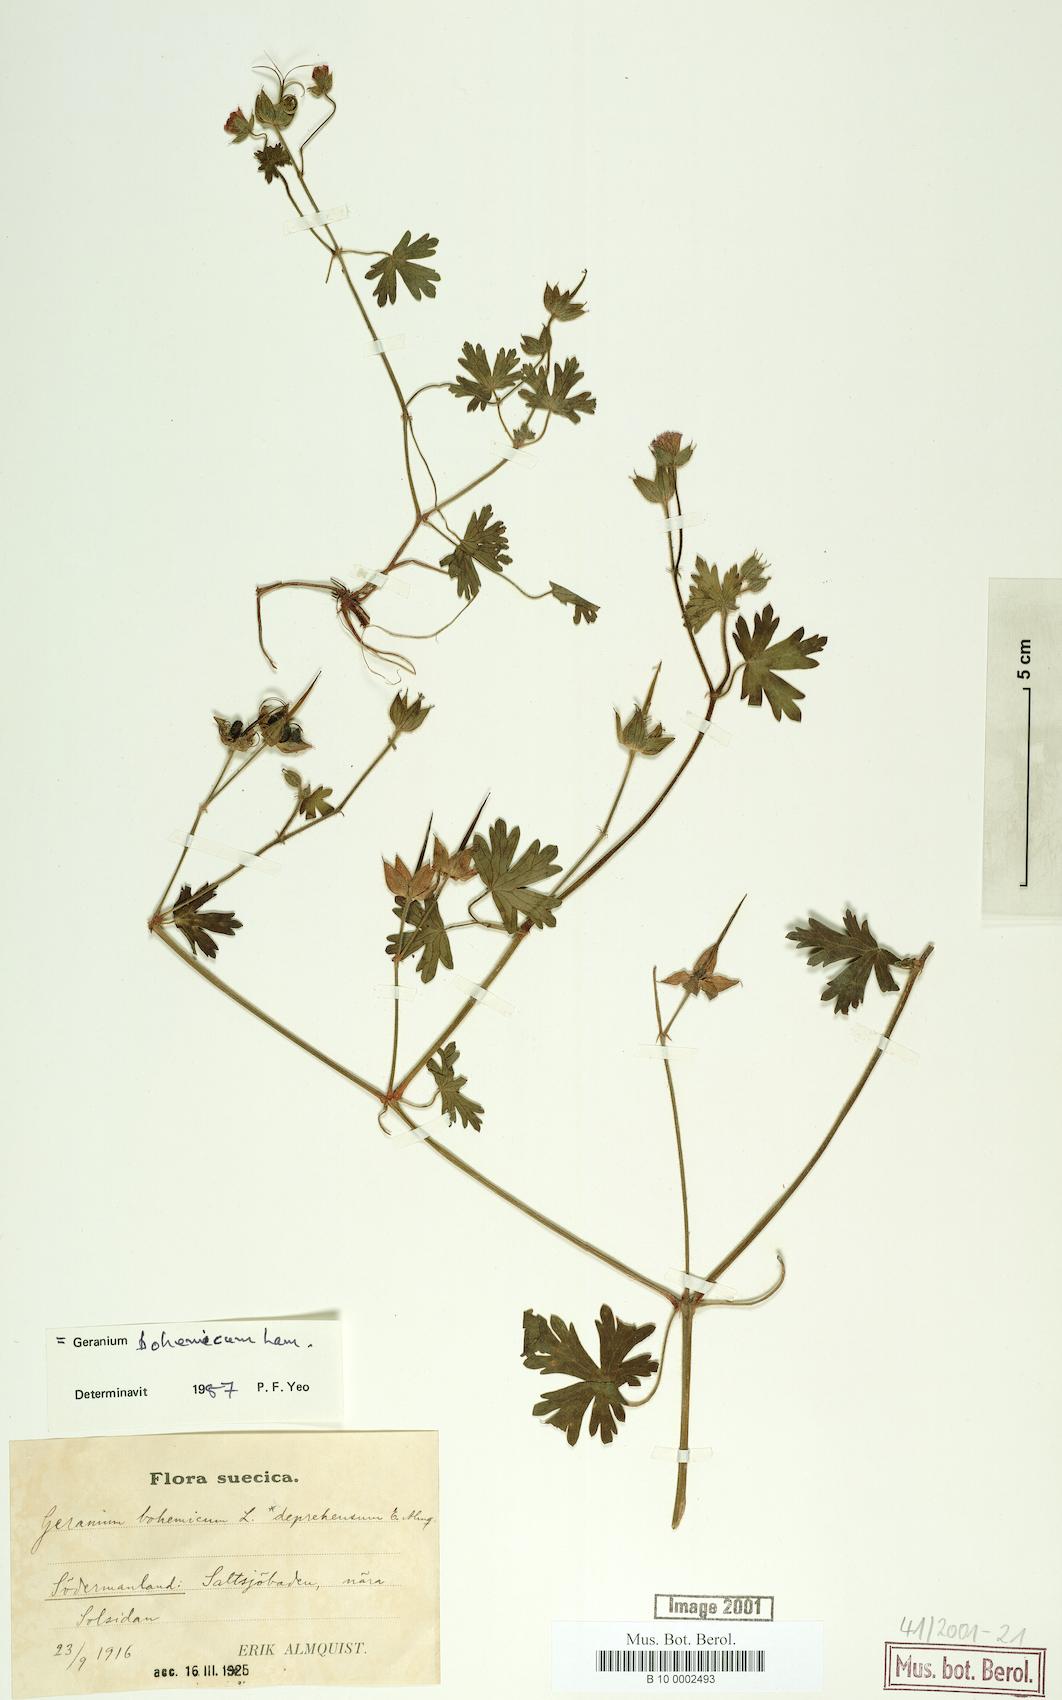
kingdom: Plantae
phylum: Tracheophyta
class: Magnoliopsida
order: Geraniales
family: Geraniaceae
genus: Geranium
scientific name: Geranium bohemicum
